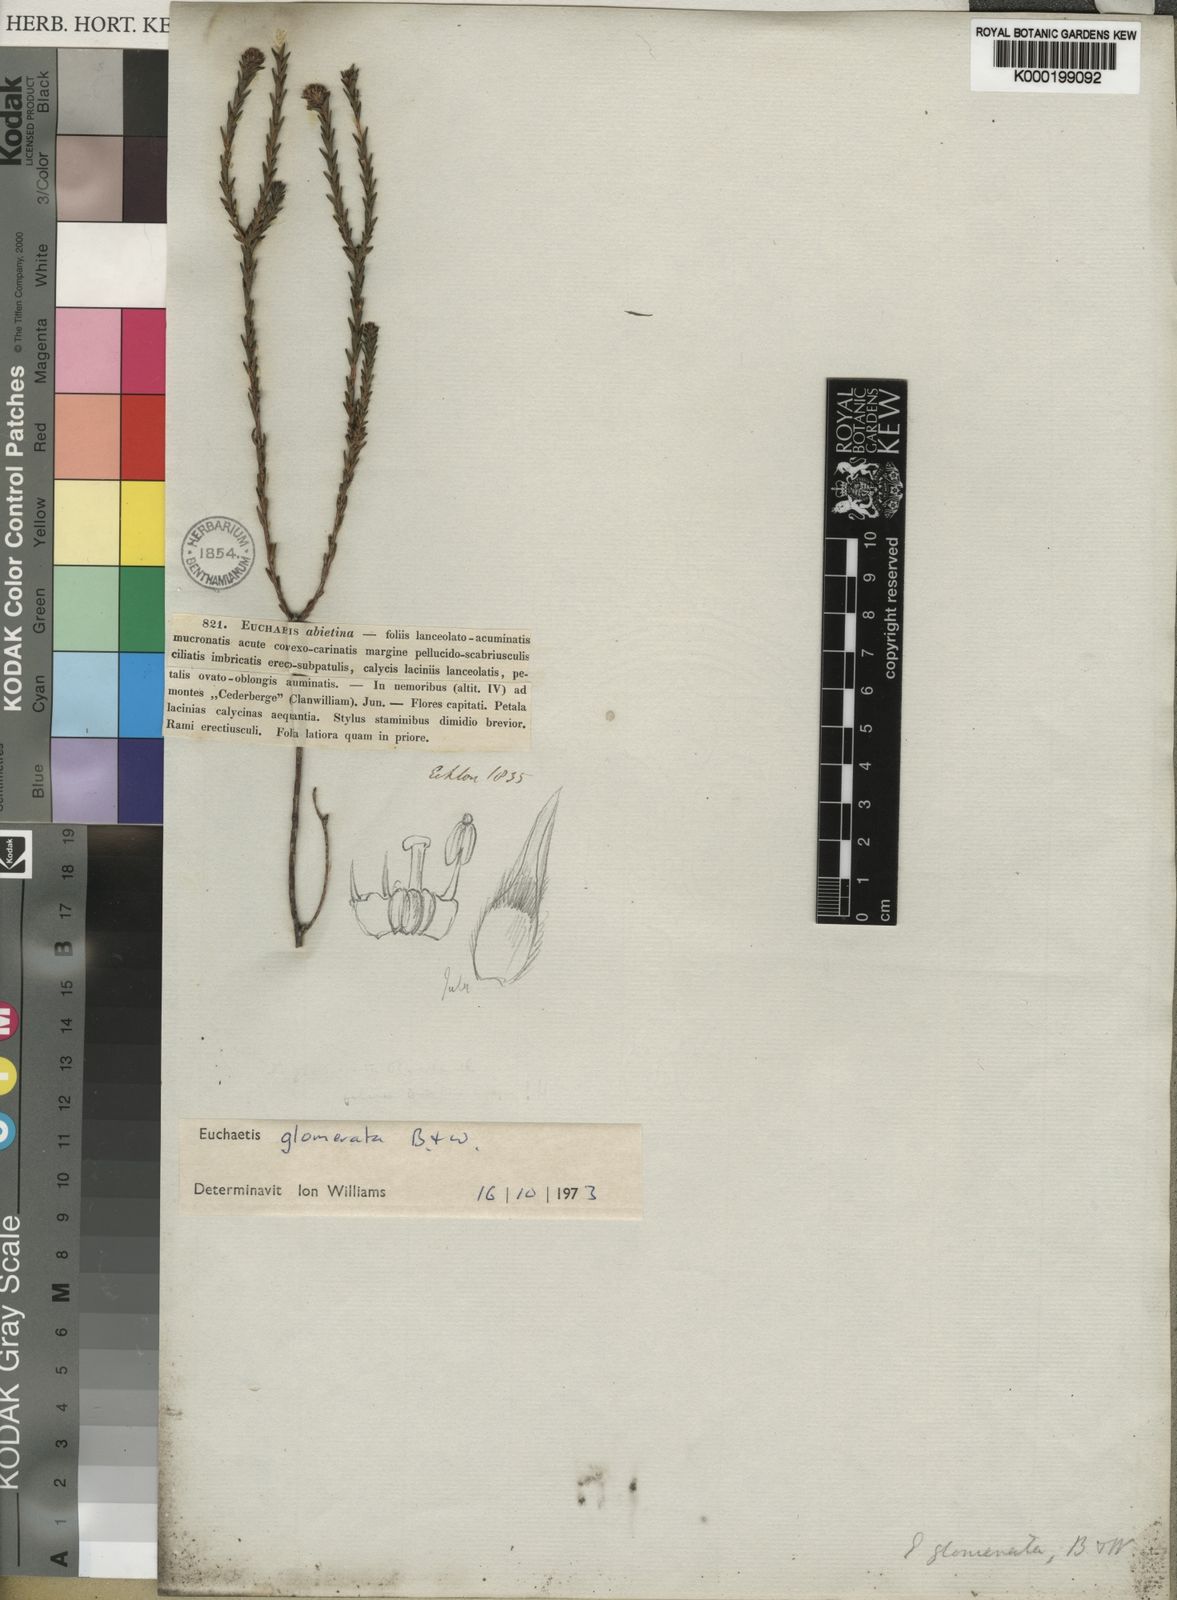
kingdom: Plantae
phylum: Tracheophyta
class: Magnoliopsida
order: Sapindales
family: Rutaceae
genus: Euchaetis
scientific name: Euchaetis glomerata
